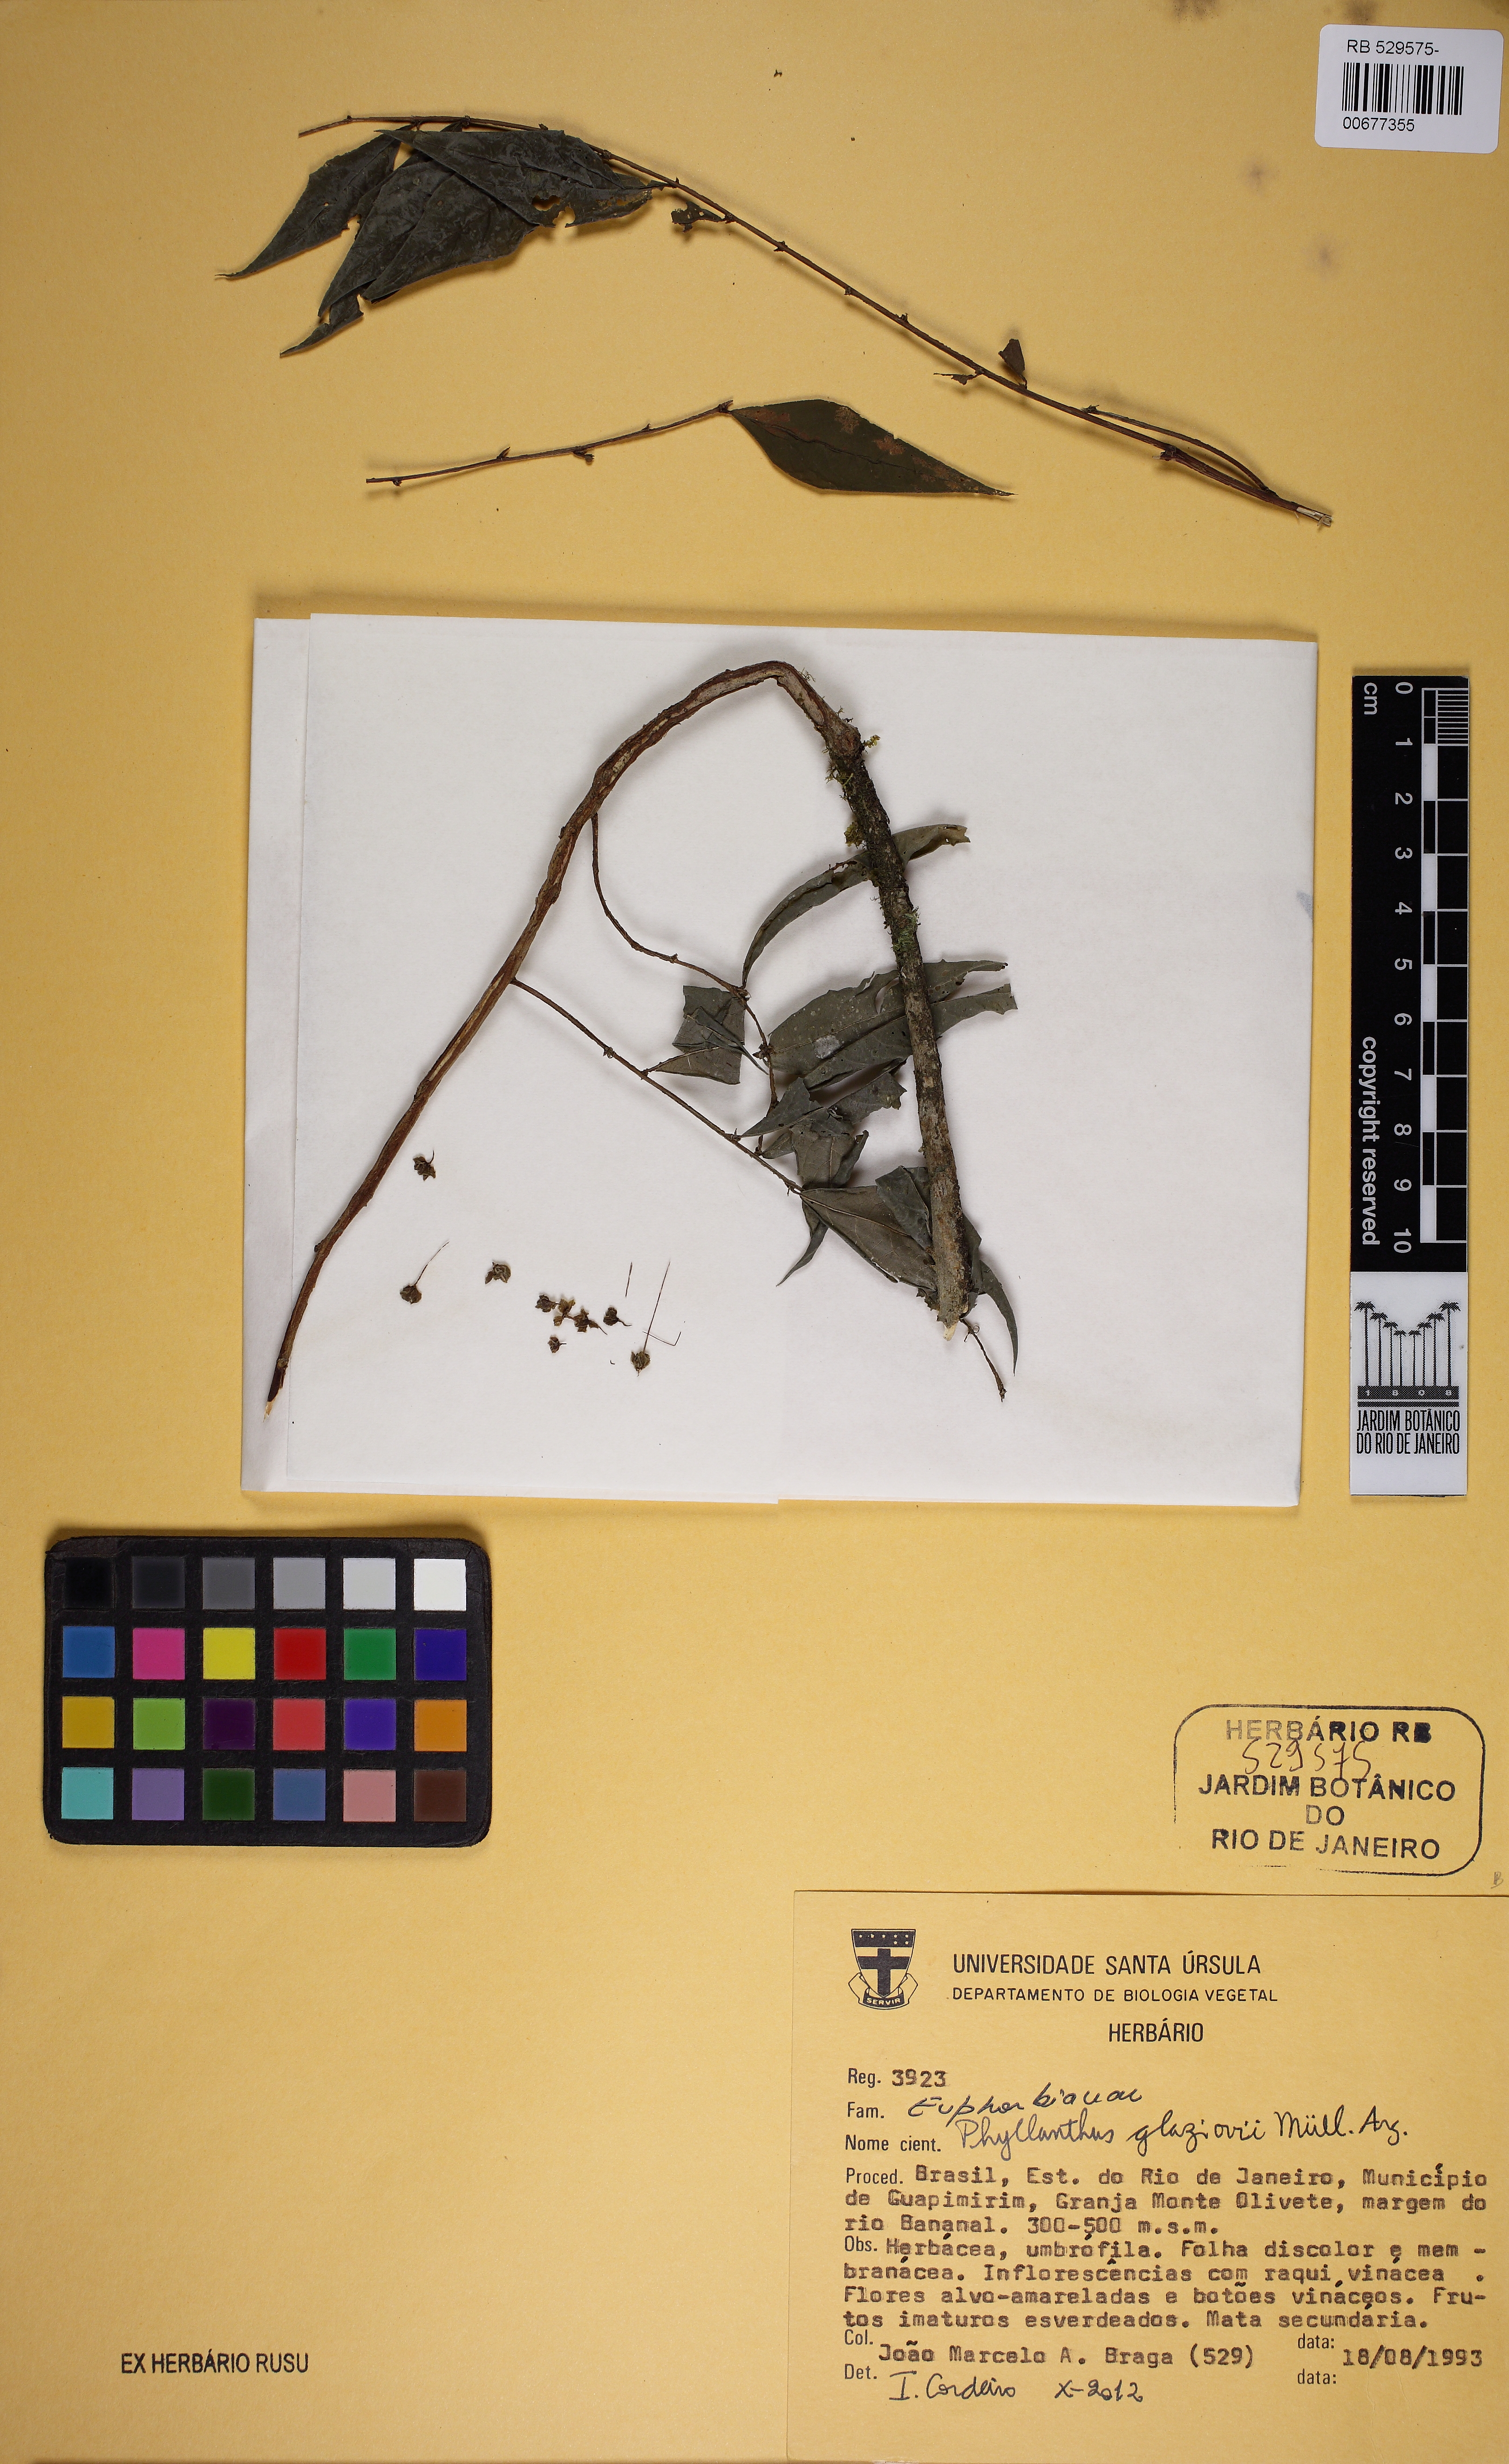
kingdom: Plantae
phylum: Tracheophyta
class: Magnoliopsida
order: Malpighiales
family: Phyllanthaceae
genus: Phyllanthus
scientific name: Phyllanthus glaziovii
